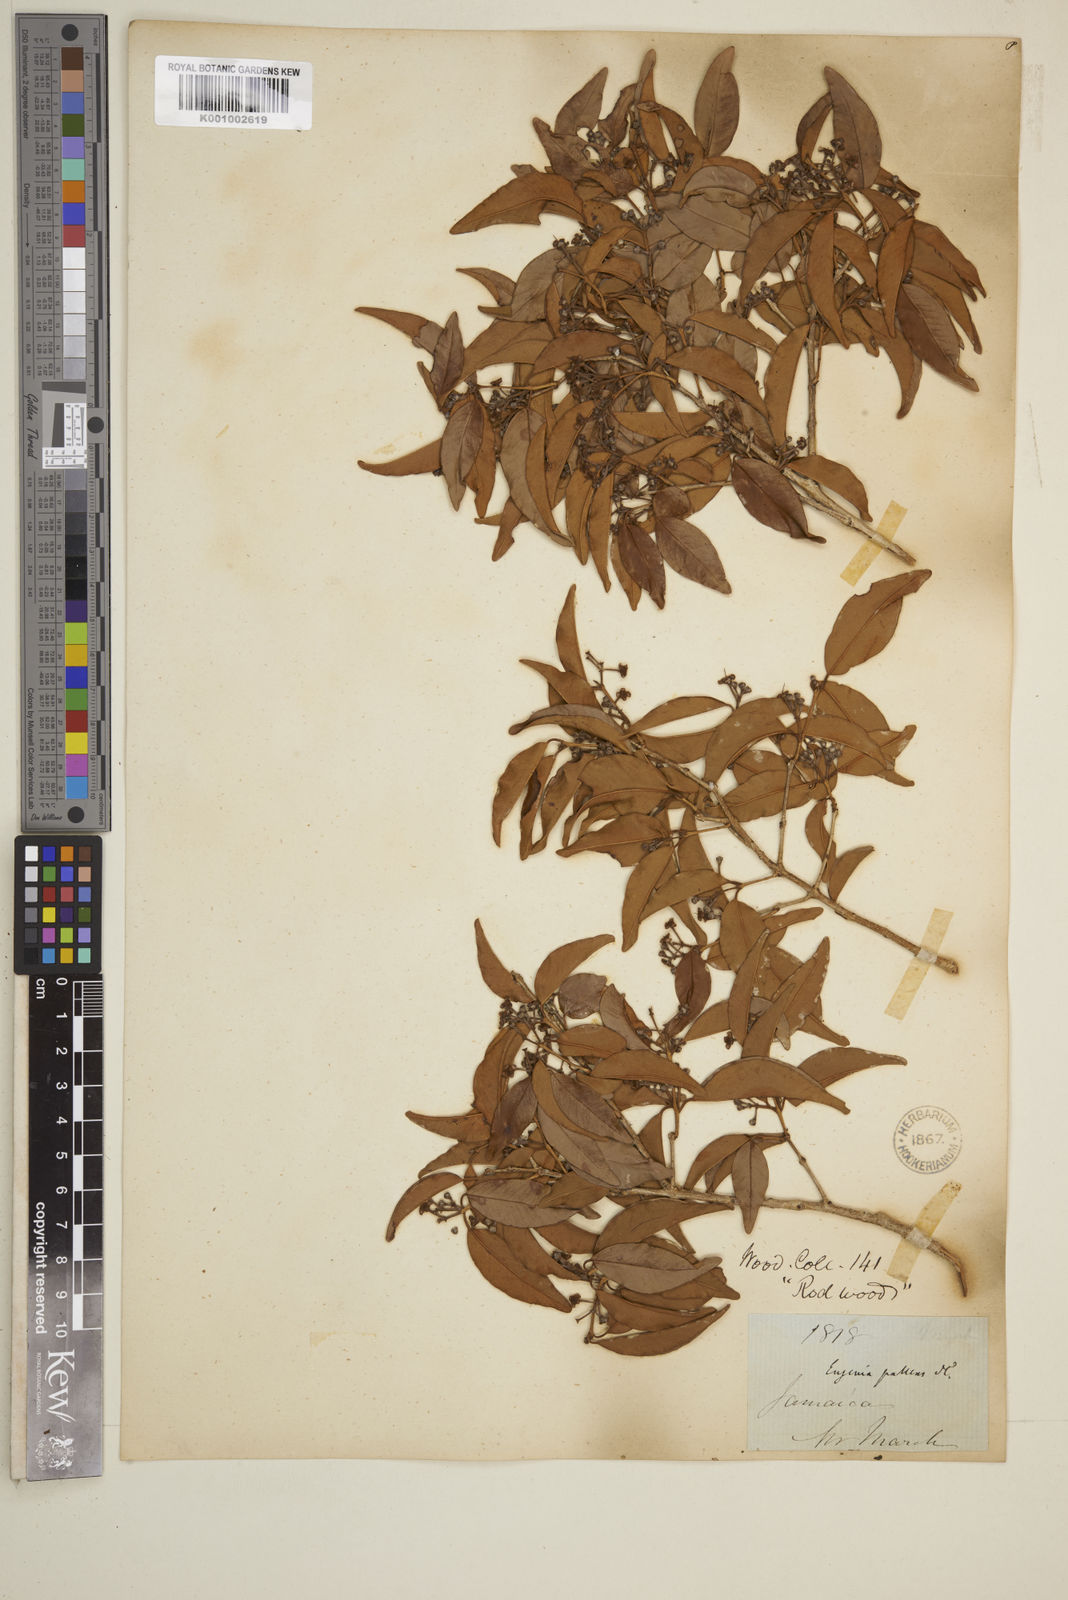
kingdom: Plantae
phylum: Tracheophyta
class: Magnoliopsida
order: Myrtales
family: Myrtaceae
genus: Myrcia
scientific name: Myrcia neopallens
